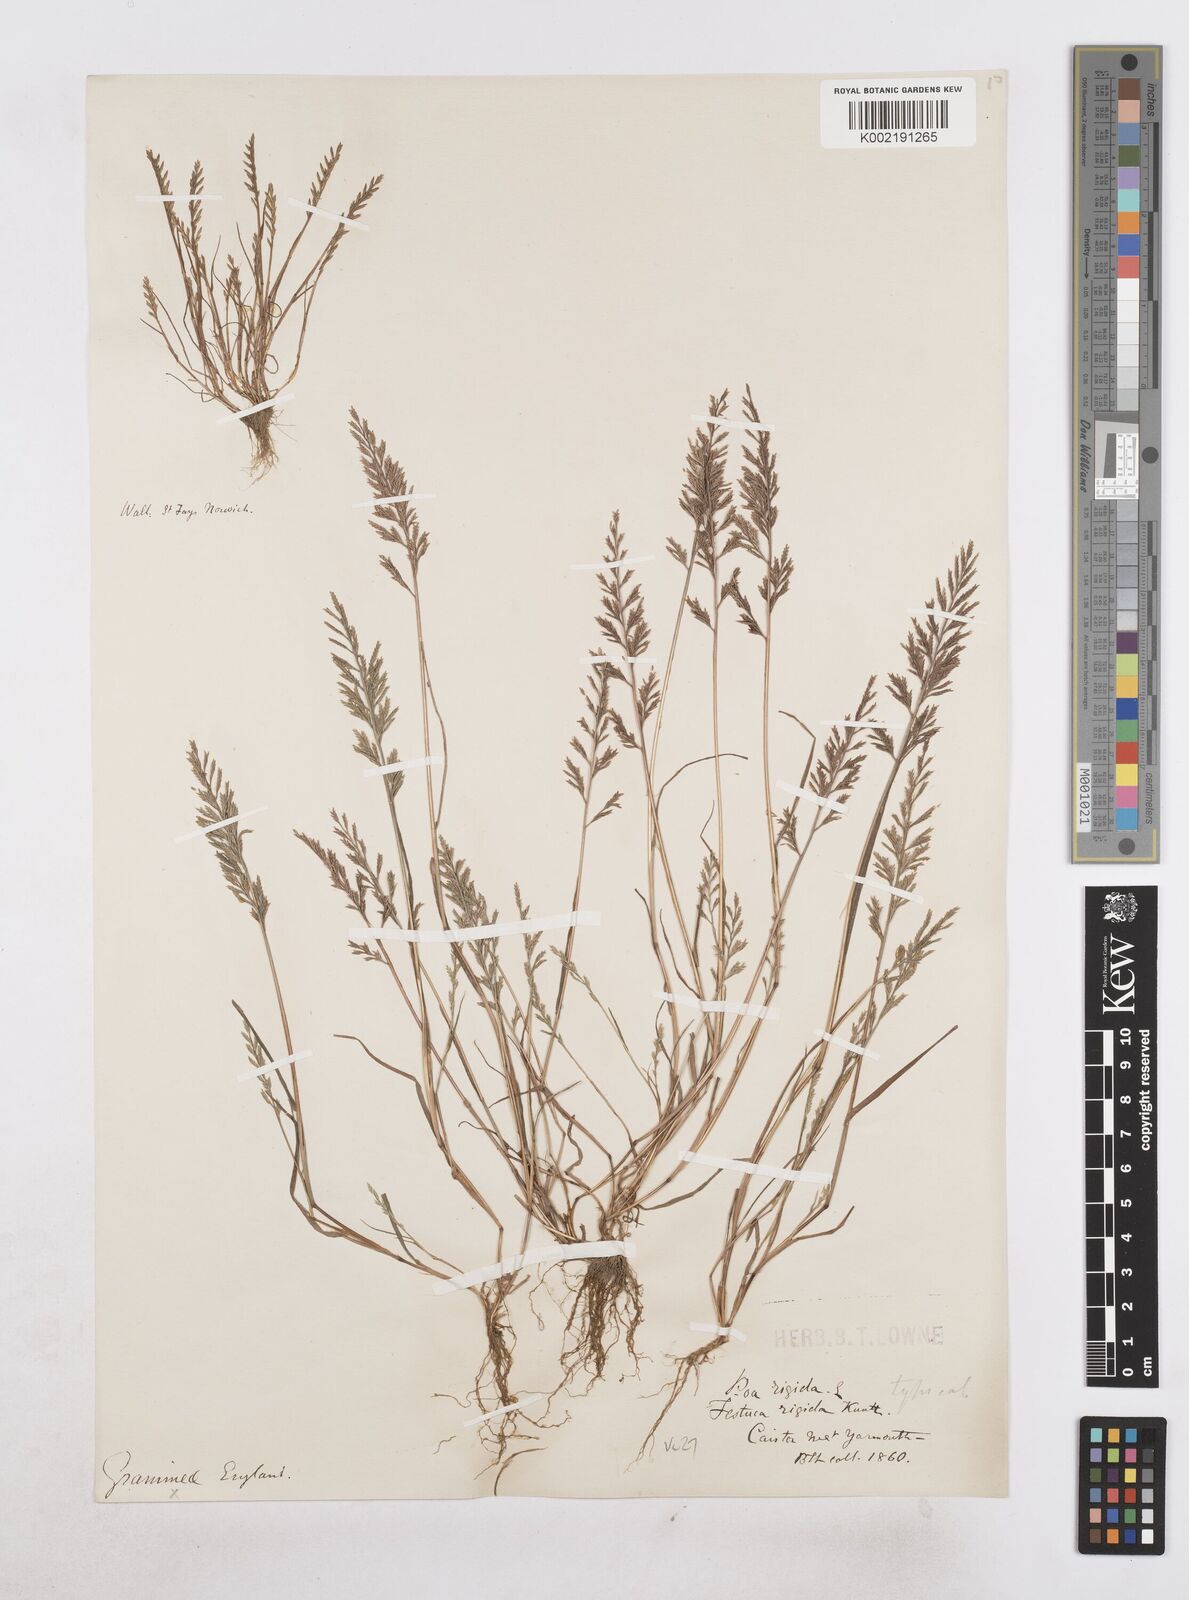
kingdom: Plantae
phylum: Tracheophyta
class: Liliopsida
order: Poales
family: Poaceae
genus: Catapodium
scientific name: Catapodium rigidum
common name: Fern-grass
